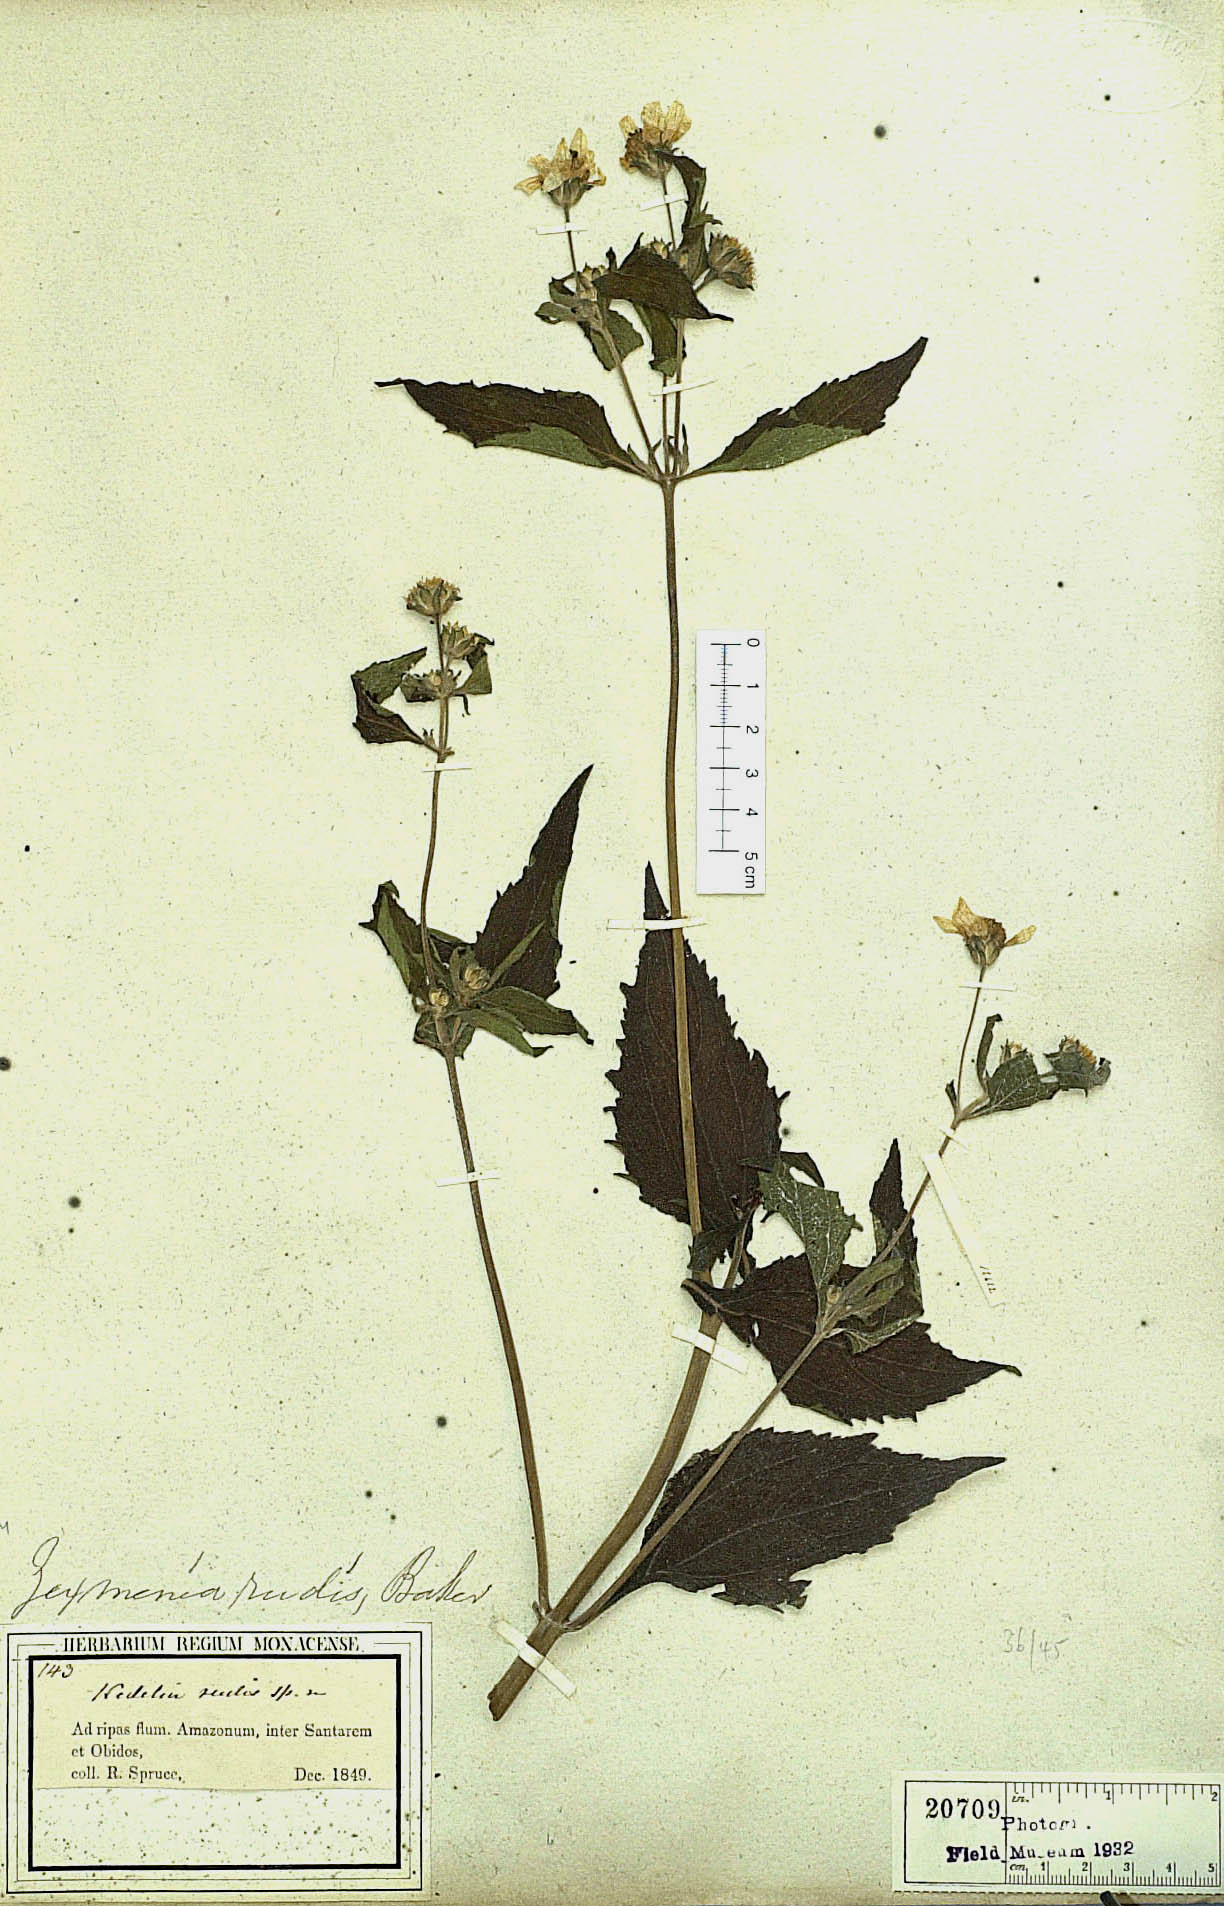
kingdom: Plantae
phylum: Tracheophyta
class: Magnoliopsida
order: Asterales
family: Asteraceae
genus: Wedelia
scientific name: Wedelia rudis
